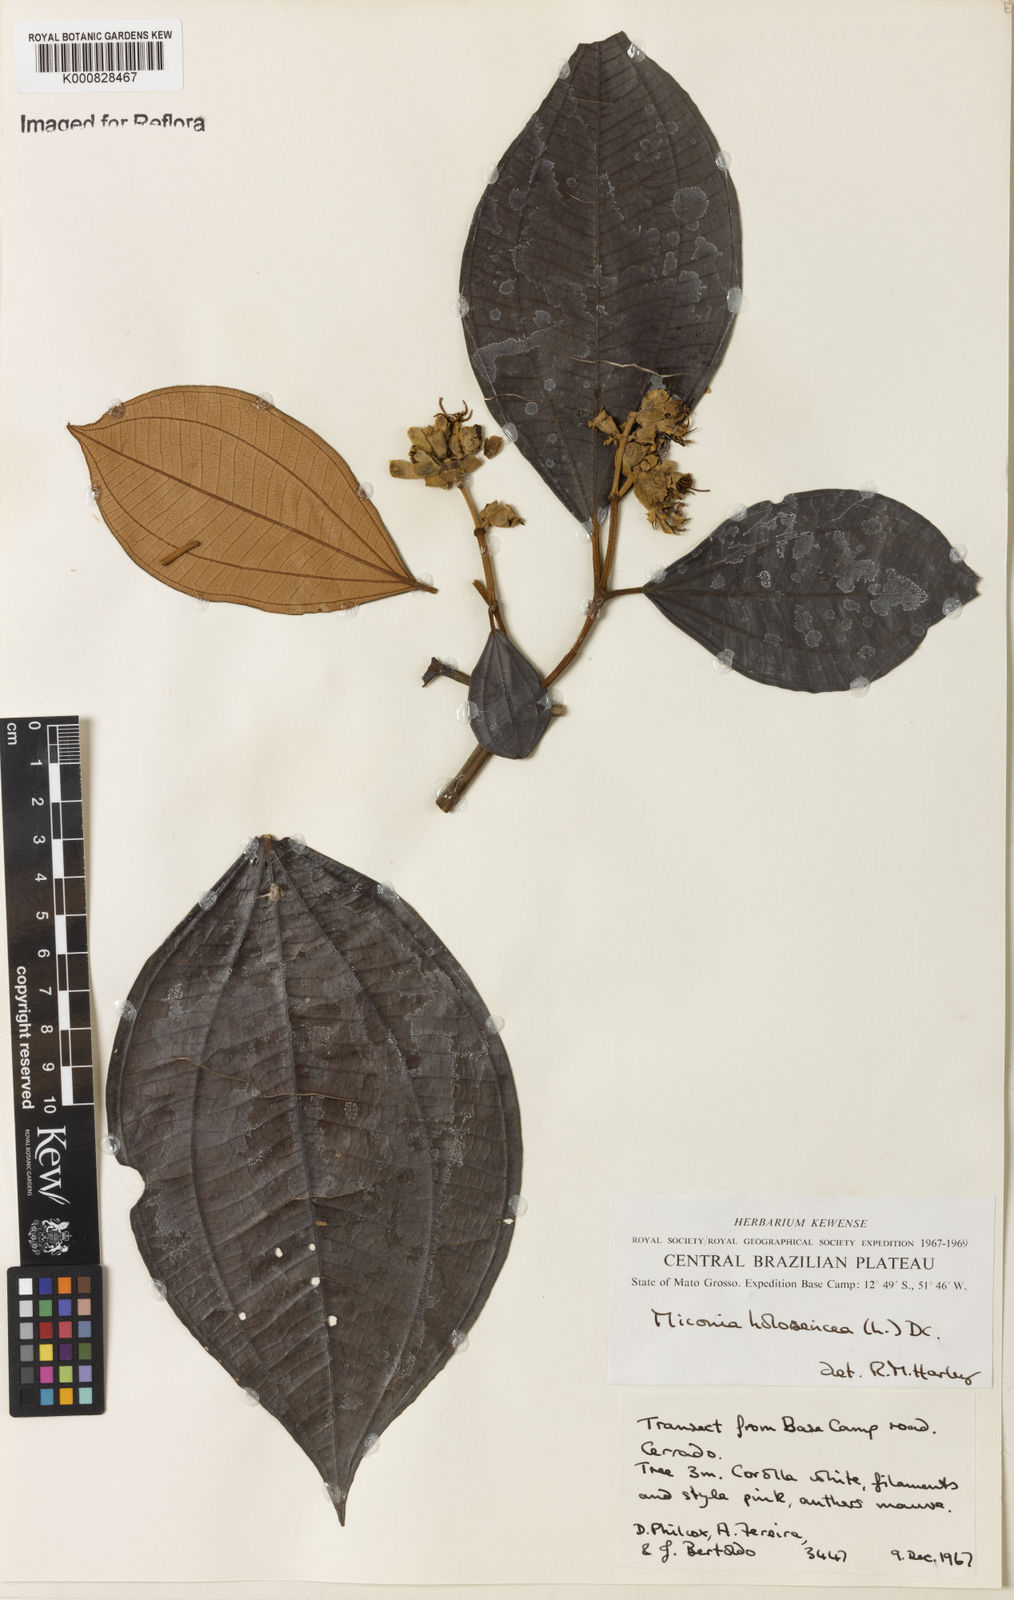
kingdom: Plantae
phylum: Tracheophyta
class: Magnoliopsida
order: Myrtales
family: Melastomataceae
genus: Miconia
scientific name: Miconia holosericea
